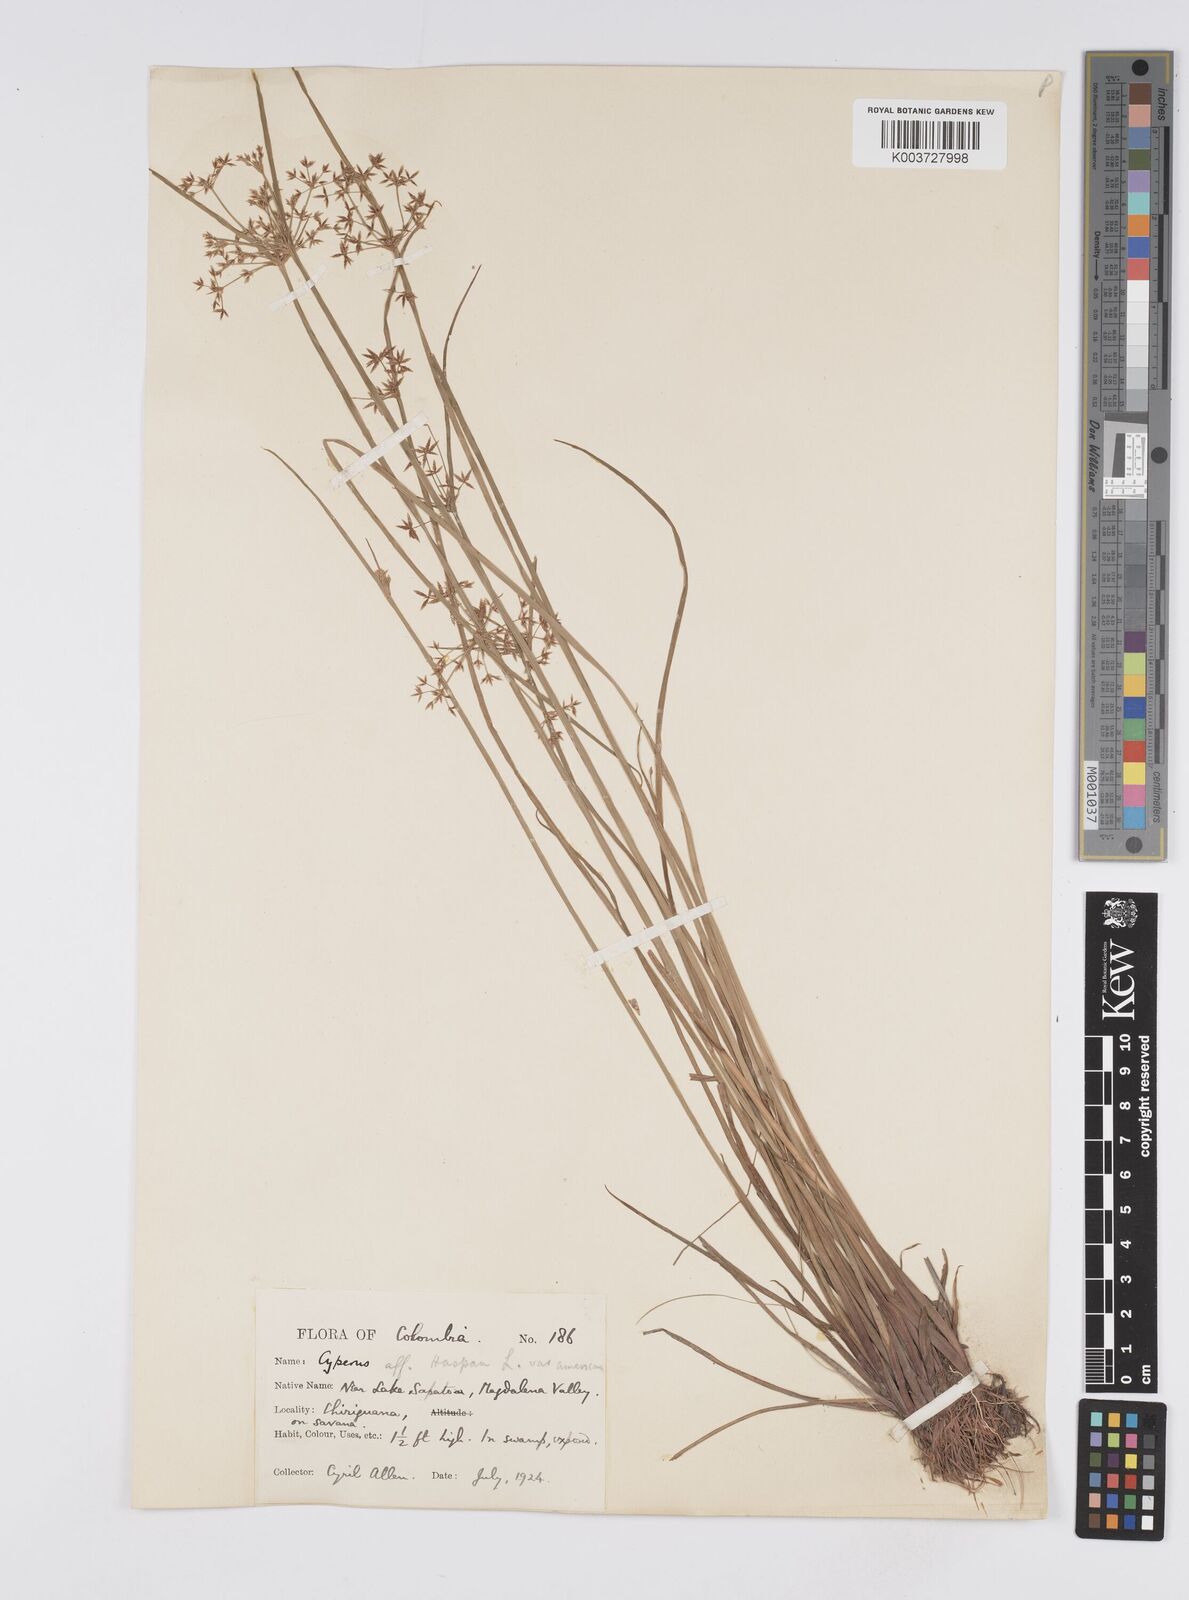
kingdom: Plantae
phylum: Tracheophyta
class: Liliopsida
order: Poales
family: Cyperaceae
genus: Cyperus
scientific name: Cyperus haspan
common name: Haspan flatsedge
